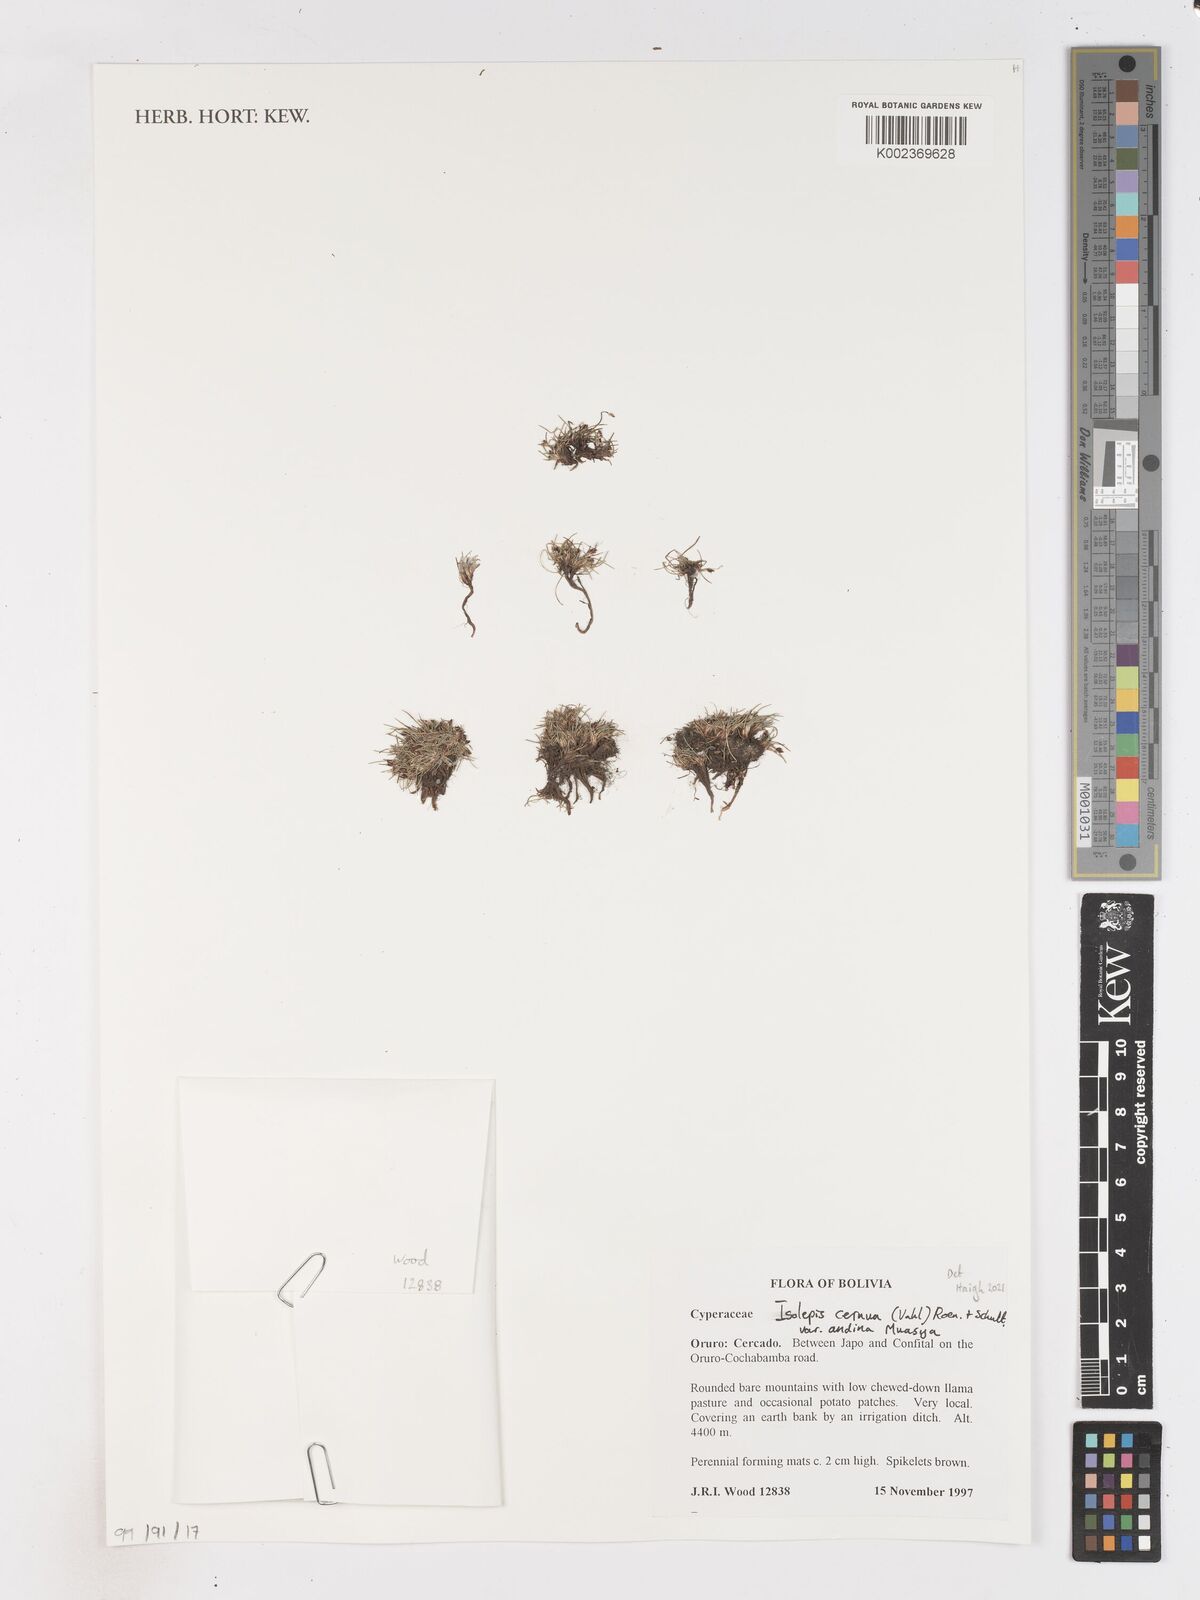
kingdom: Plantae
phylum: Tracheophyta
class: Liliopsida
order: Poales
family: Cyperaceae
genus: Isolepis
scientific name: Isolepis cernua
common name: Slender club-rush
